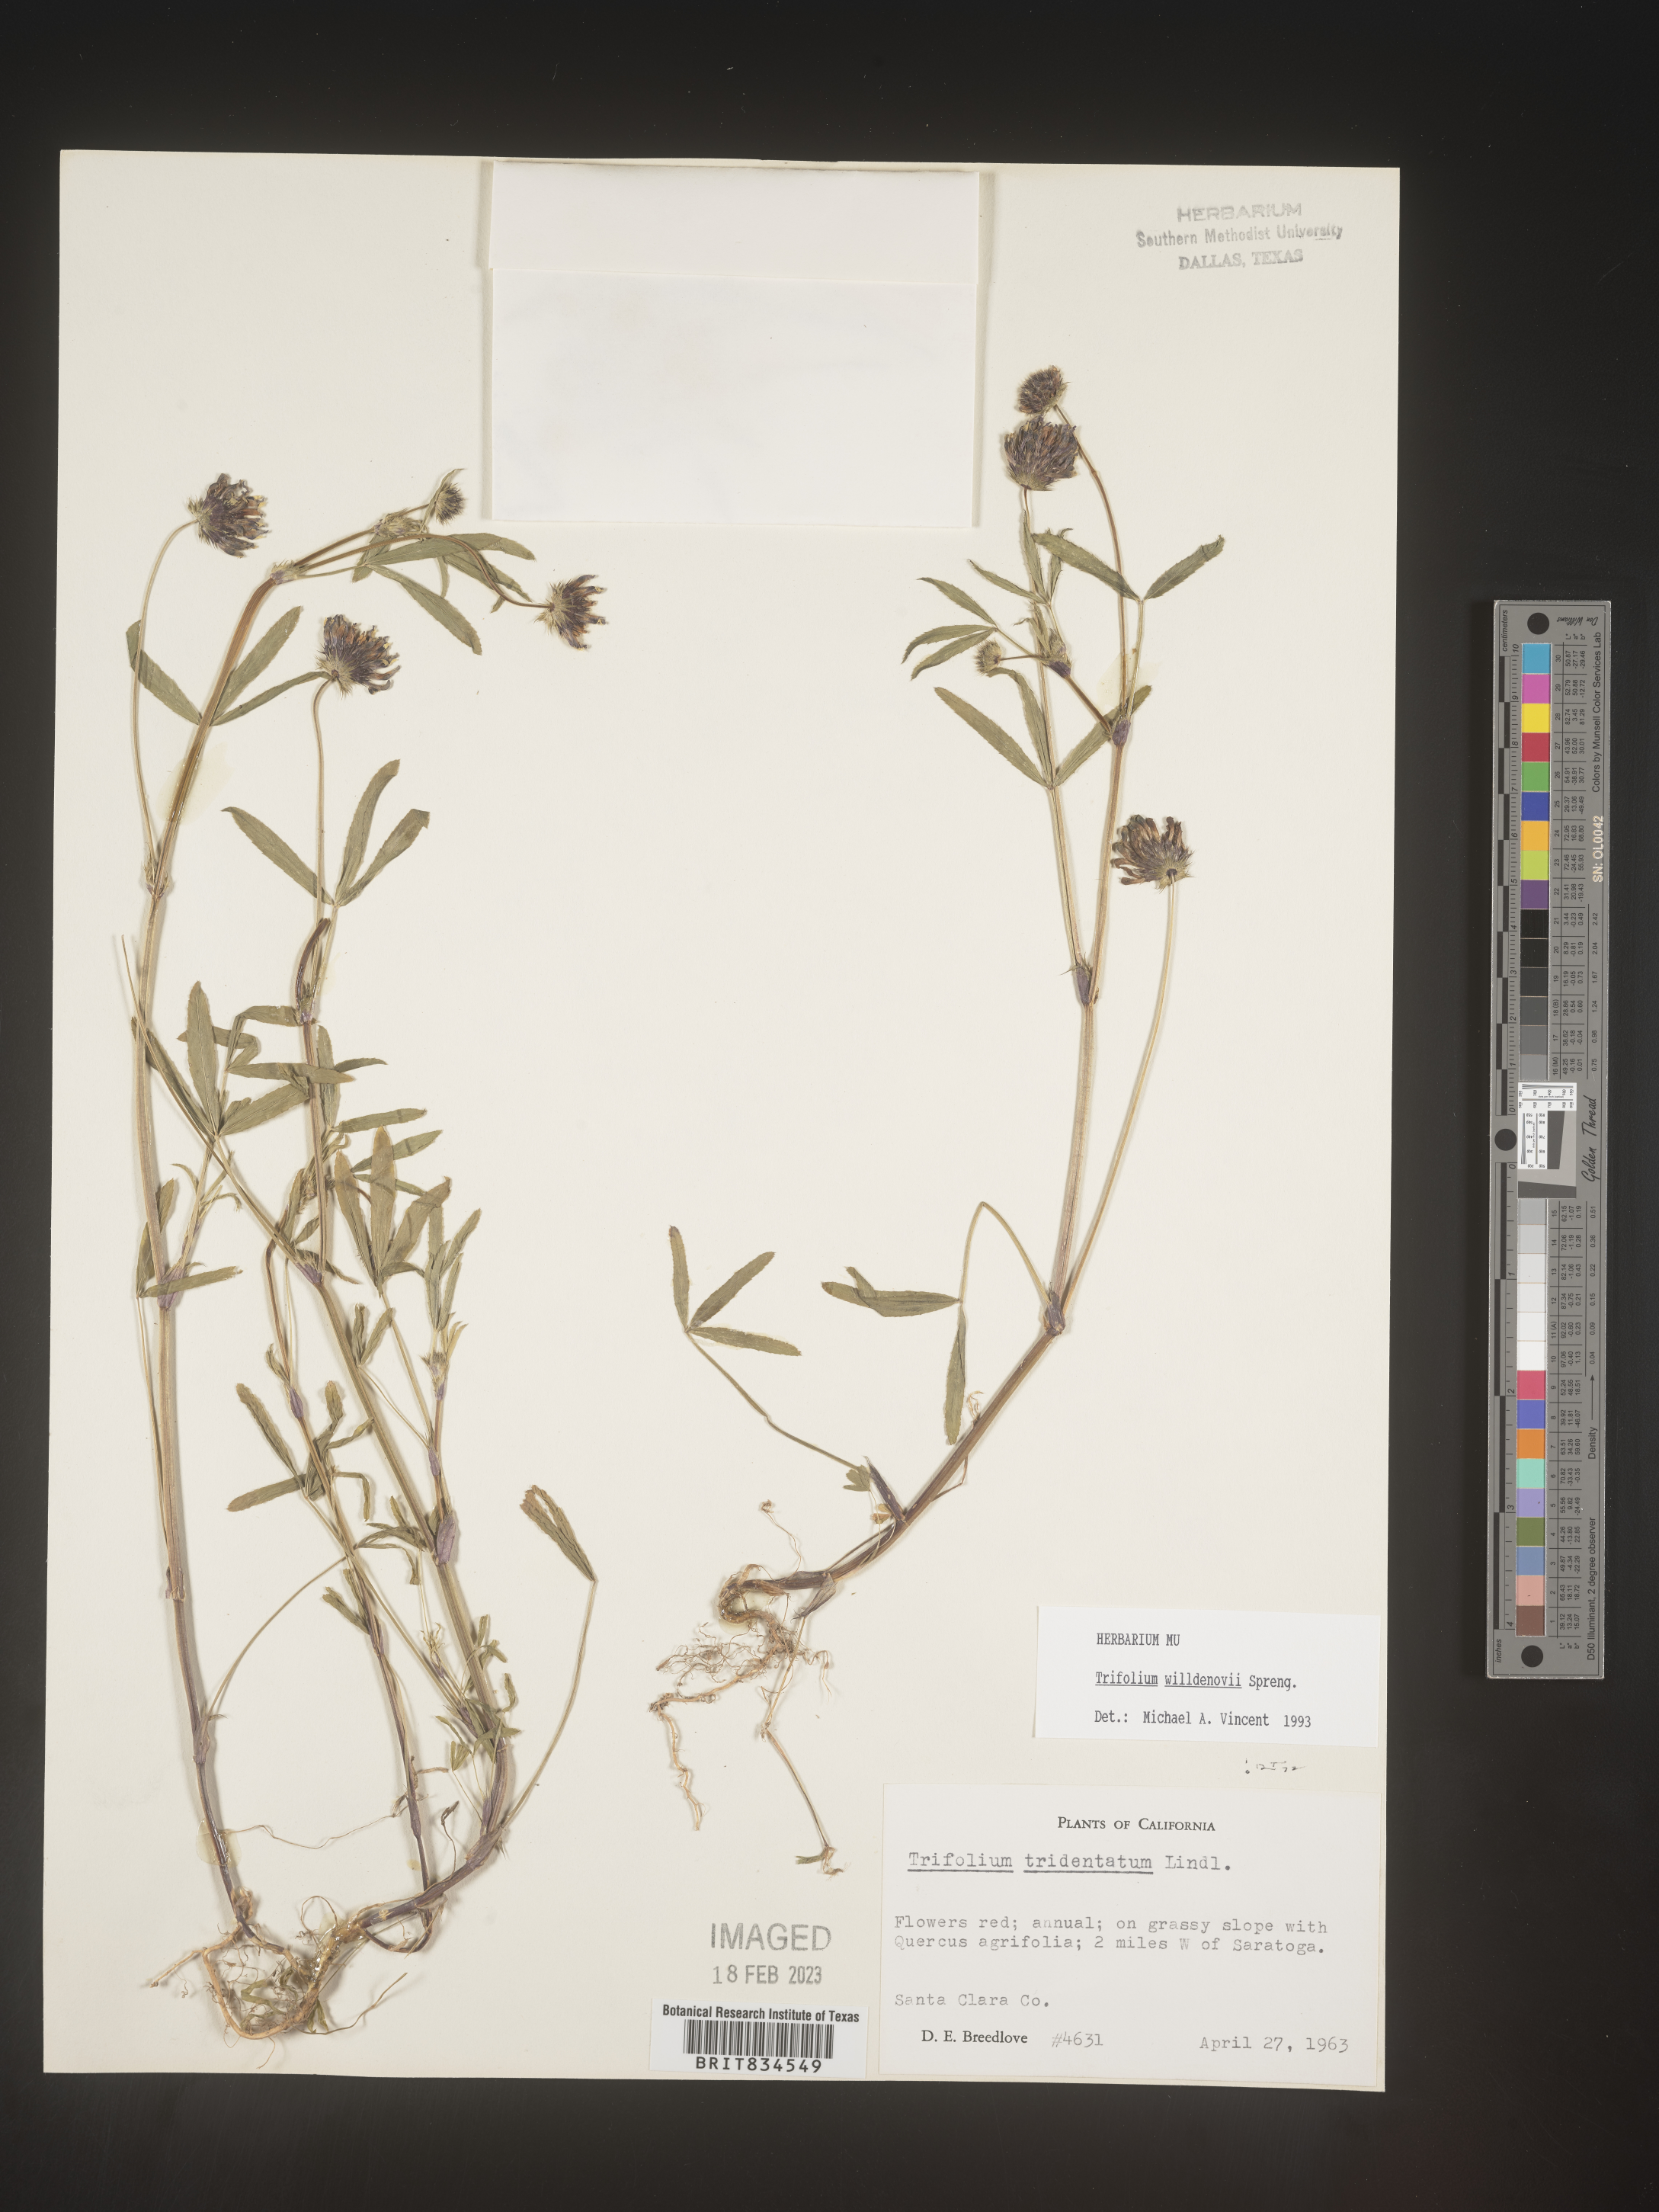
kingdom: Plantae
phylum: Tracheophyta
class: Magnoliopsida
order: Fabales
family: Fabaceae
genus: Trifolium
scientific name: Trifolium
